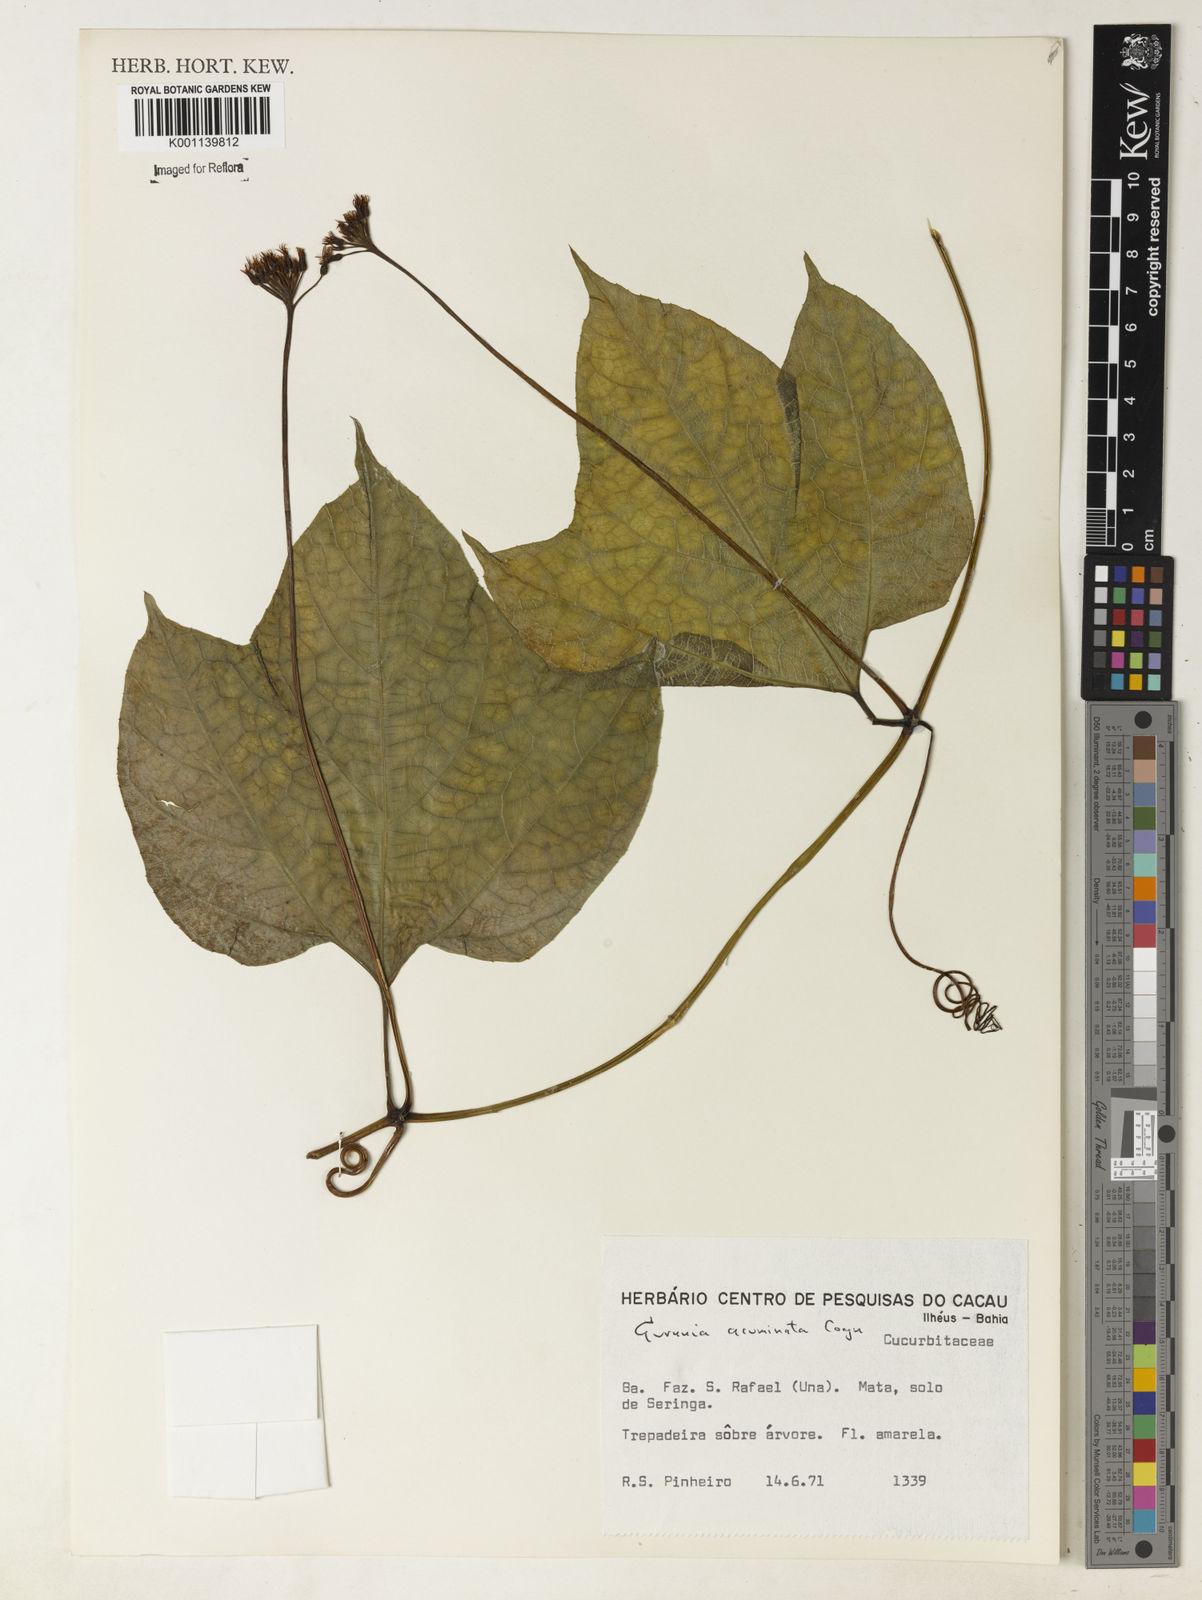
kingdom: Plantae
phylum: Tracheophyta
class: Magnoliopsida
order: Cucurbitales
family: Cucurbitaceae
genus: Gurania
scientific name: Gurania acuminata
